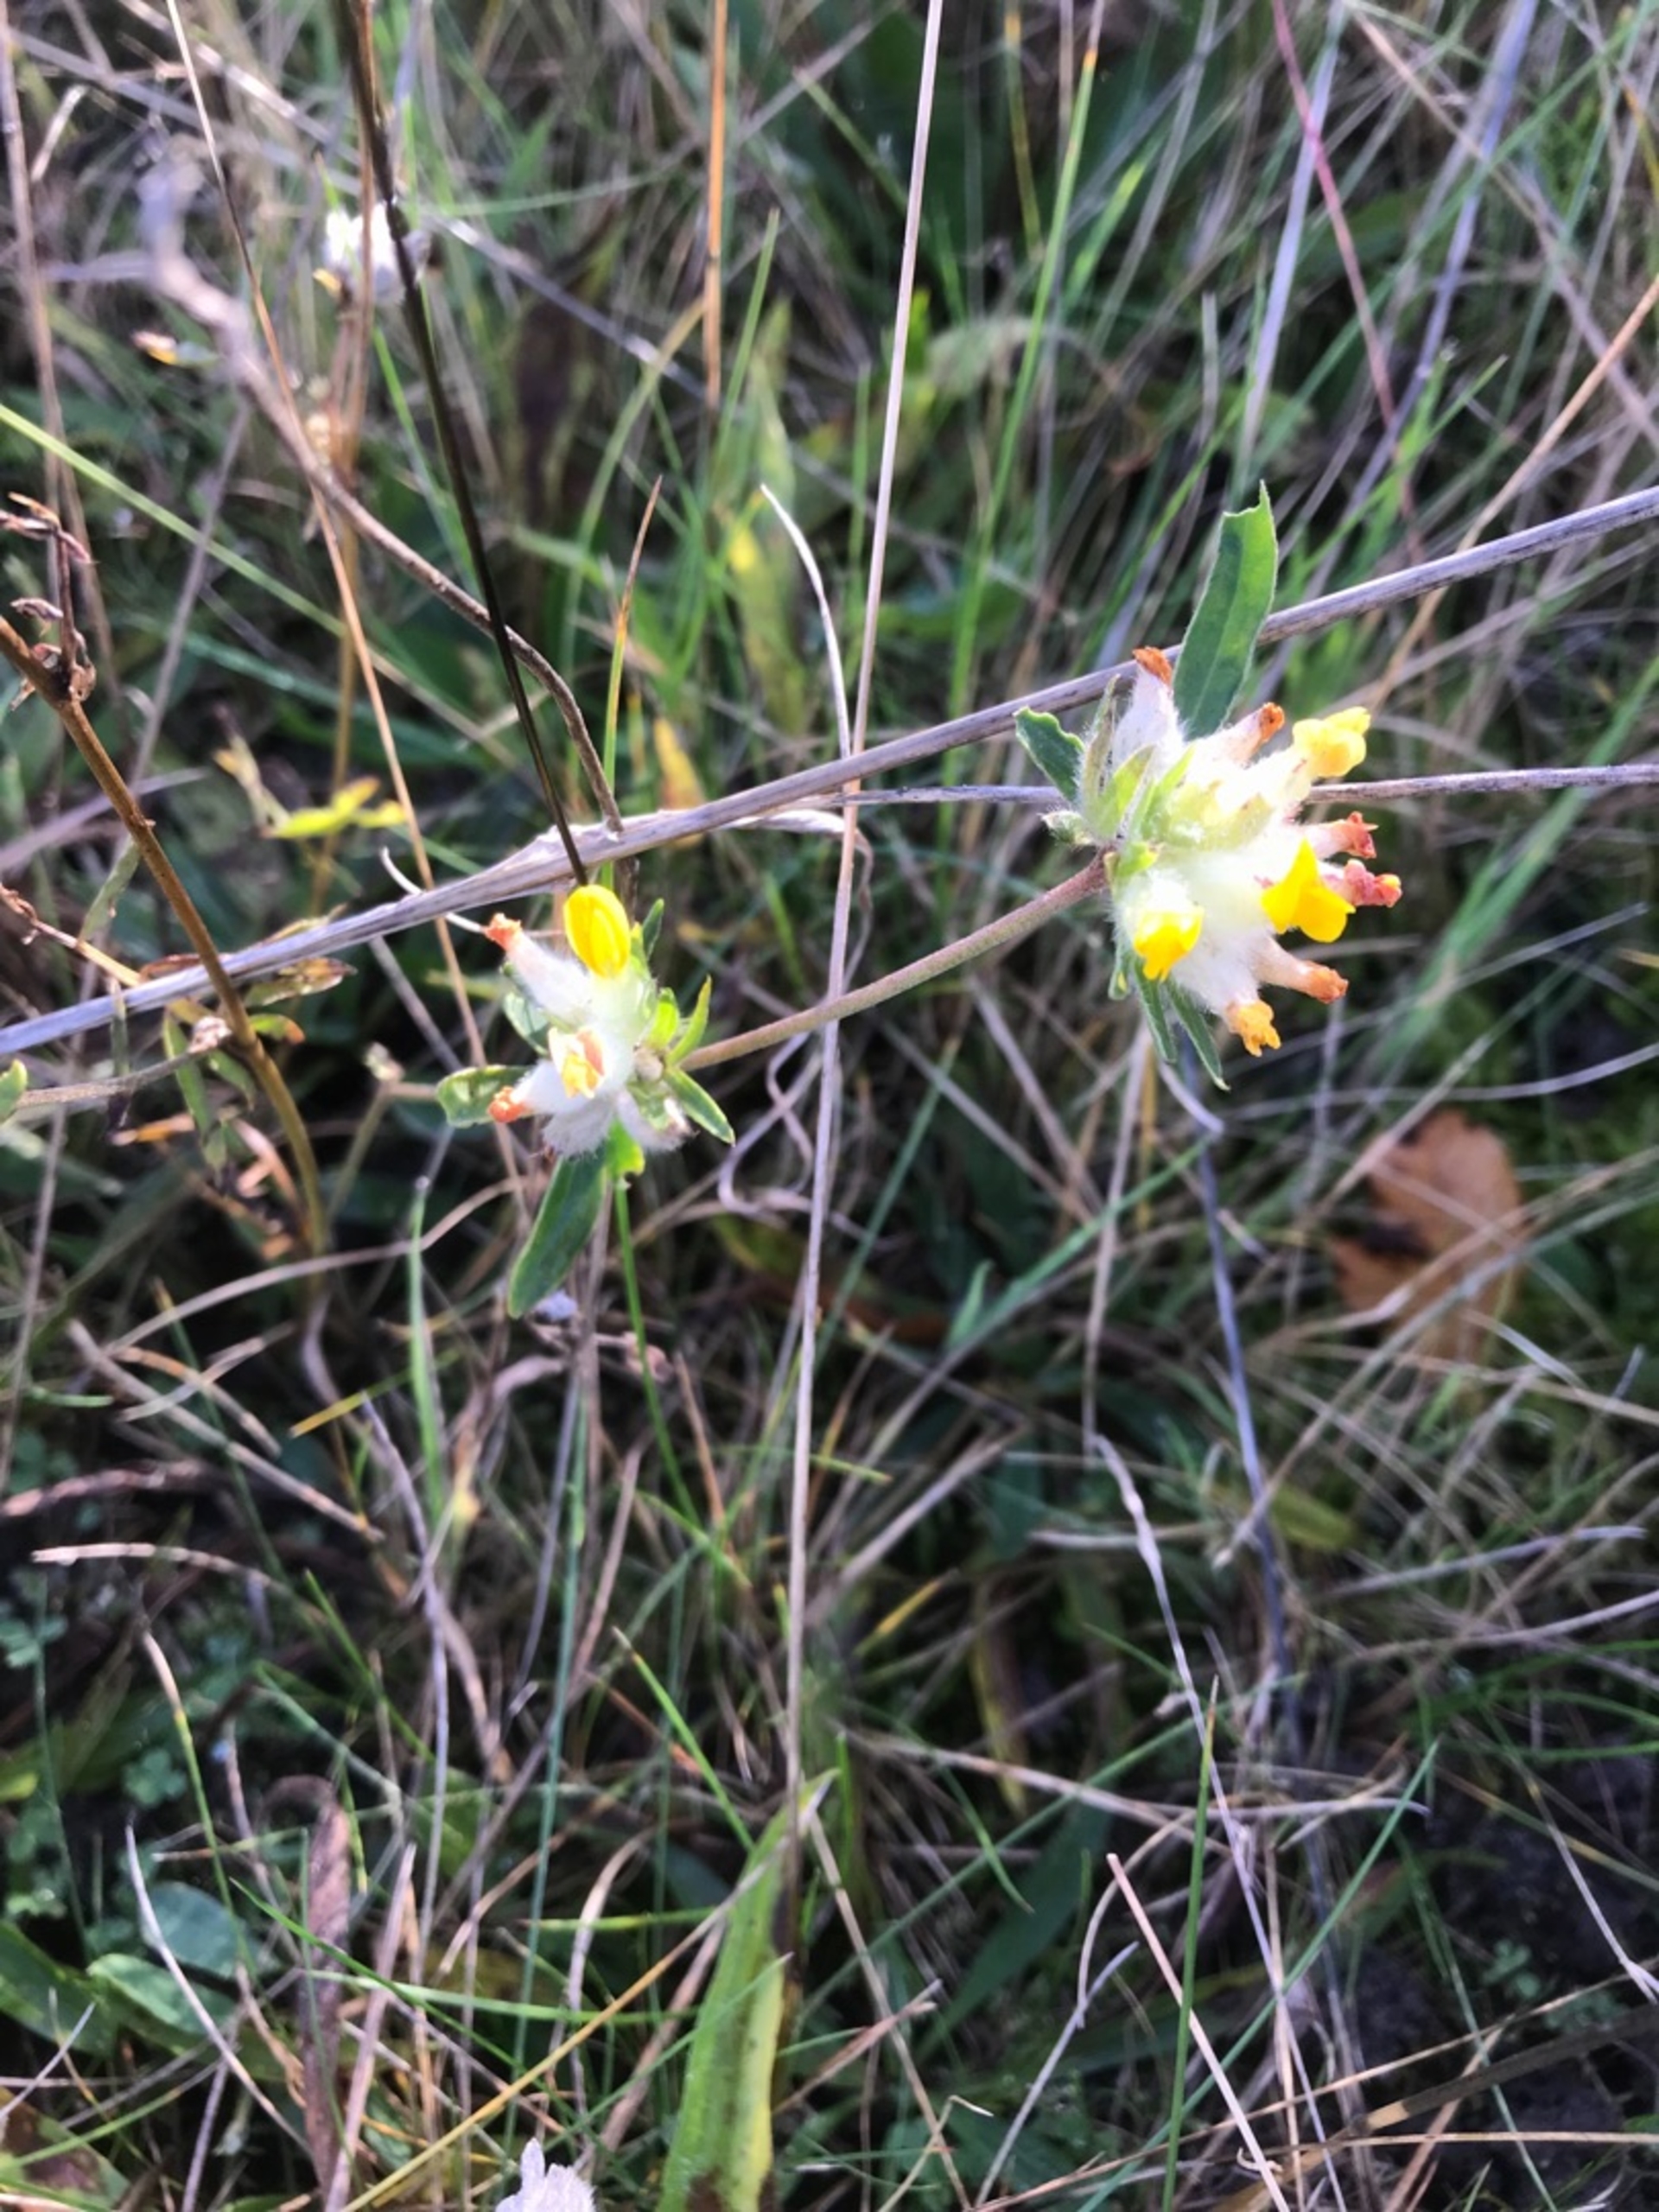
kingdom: Plantae
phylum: Tracheophyta
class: Magnoliopsida
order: Fabales
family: Fabaceae
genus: Anthyllis
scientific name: Anthyllis vulneraria
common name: Rundbælg
